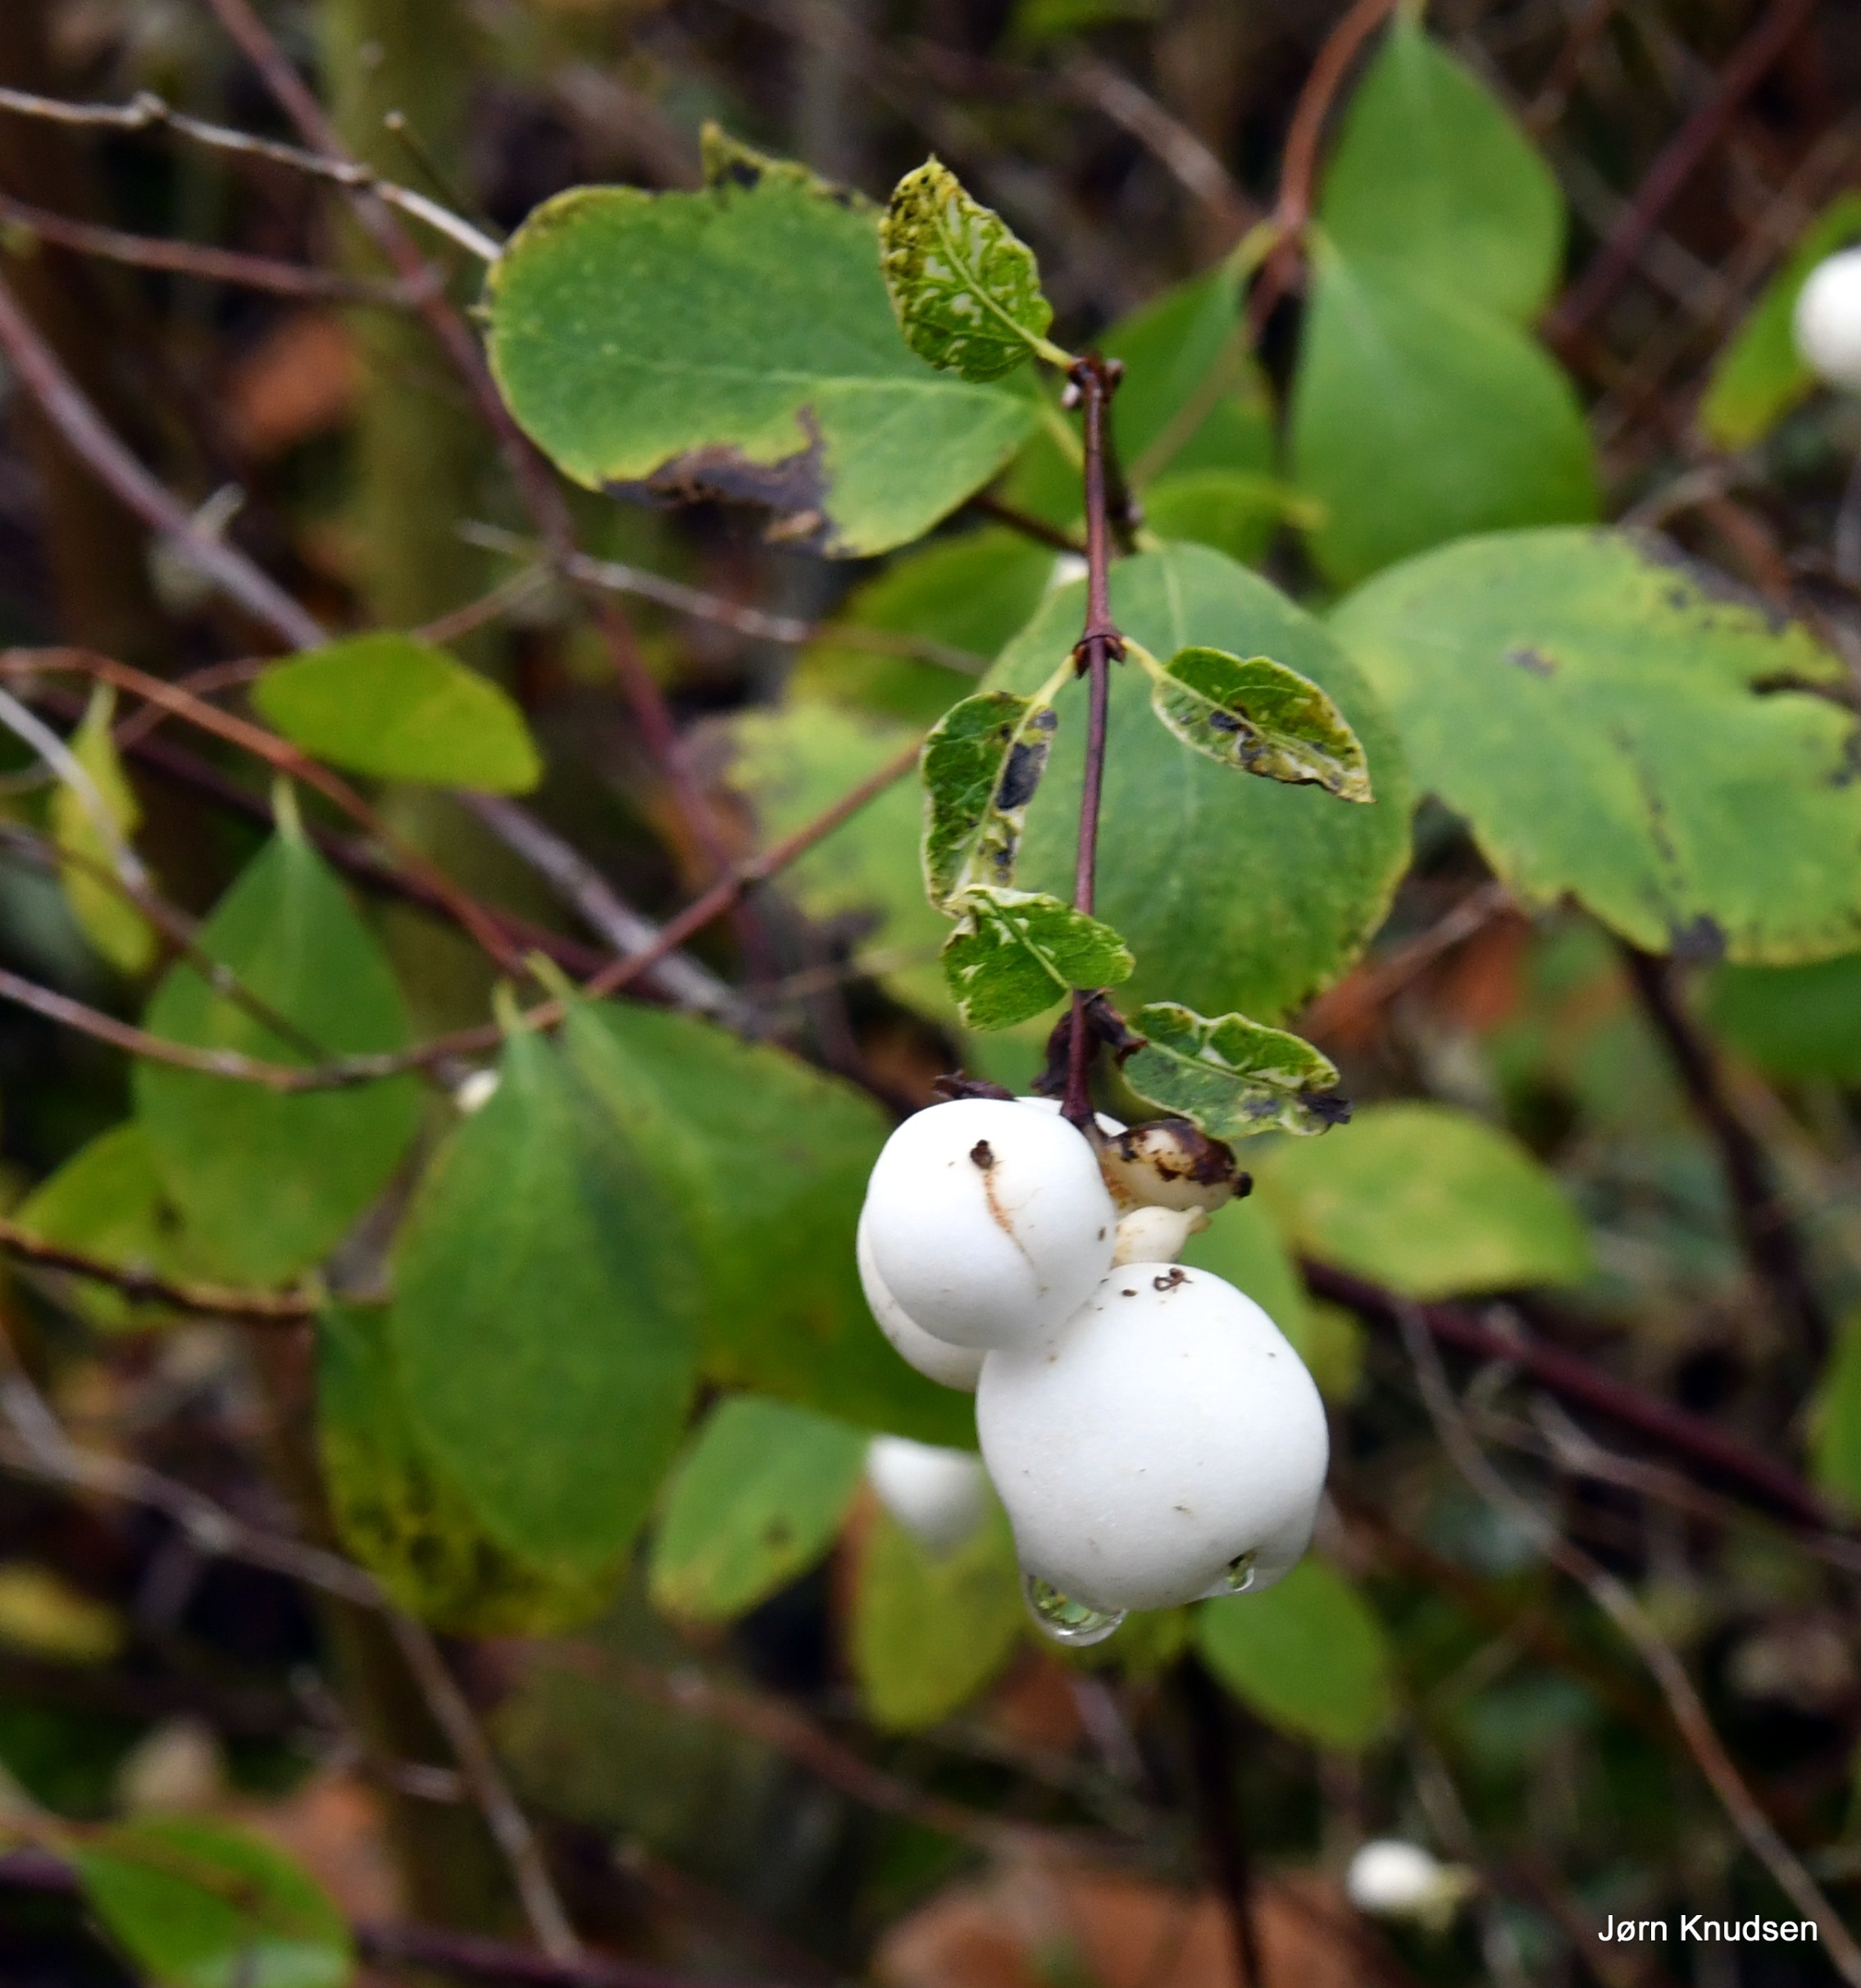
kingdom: Plantae
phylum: Tracheophyta
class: Magnoliopsida
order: Dipsacales
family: Caprifoliaceae
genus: Symphoricarpos
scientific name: Symphoricarpos albus
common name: Almindelig snebær
